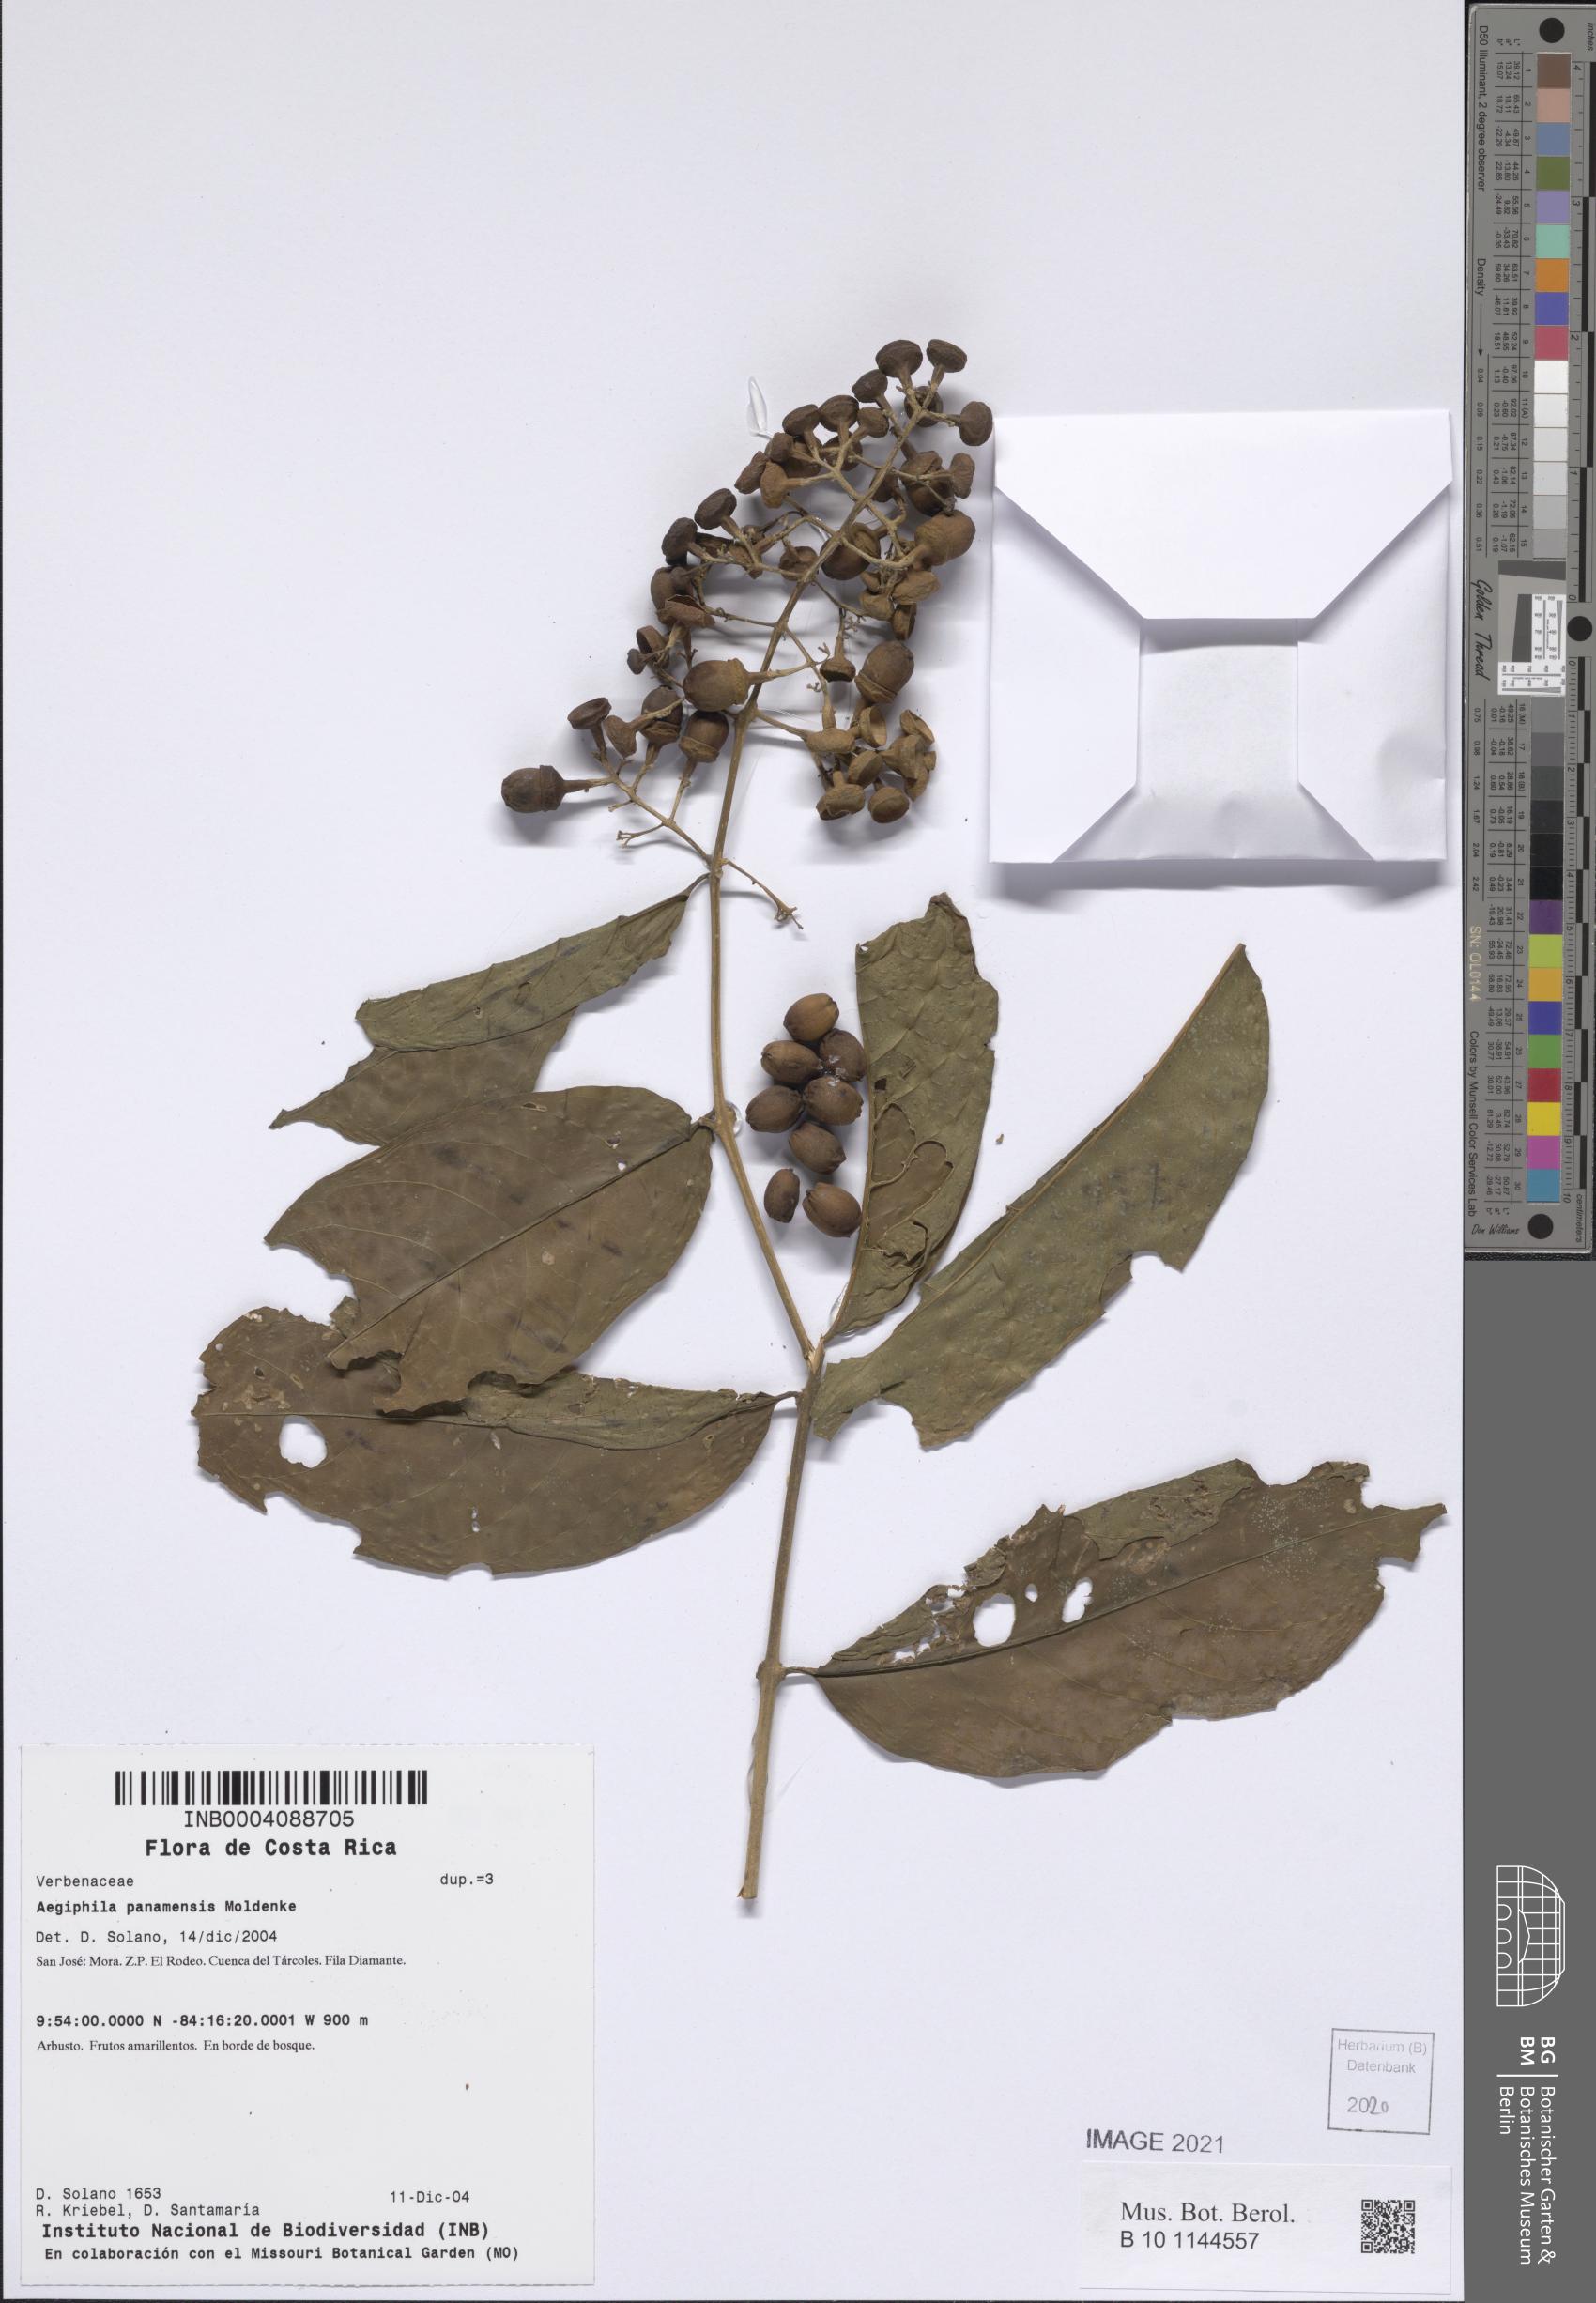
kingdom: Plantae
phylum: Tracheophyta
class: Magnoliopsida
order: Lamiales
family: Lamiaceae
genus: Aegiphila
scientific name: Aegiphila panamensis
